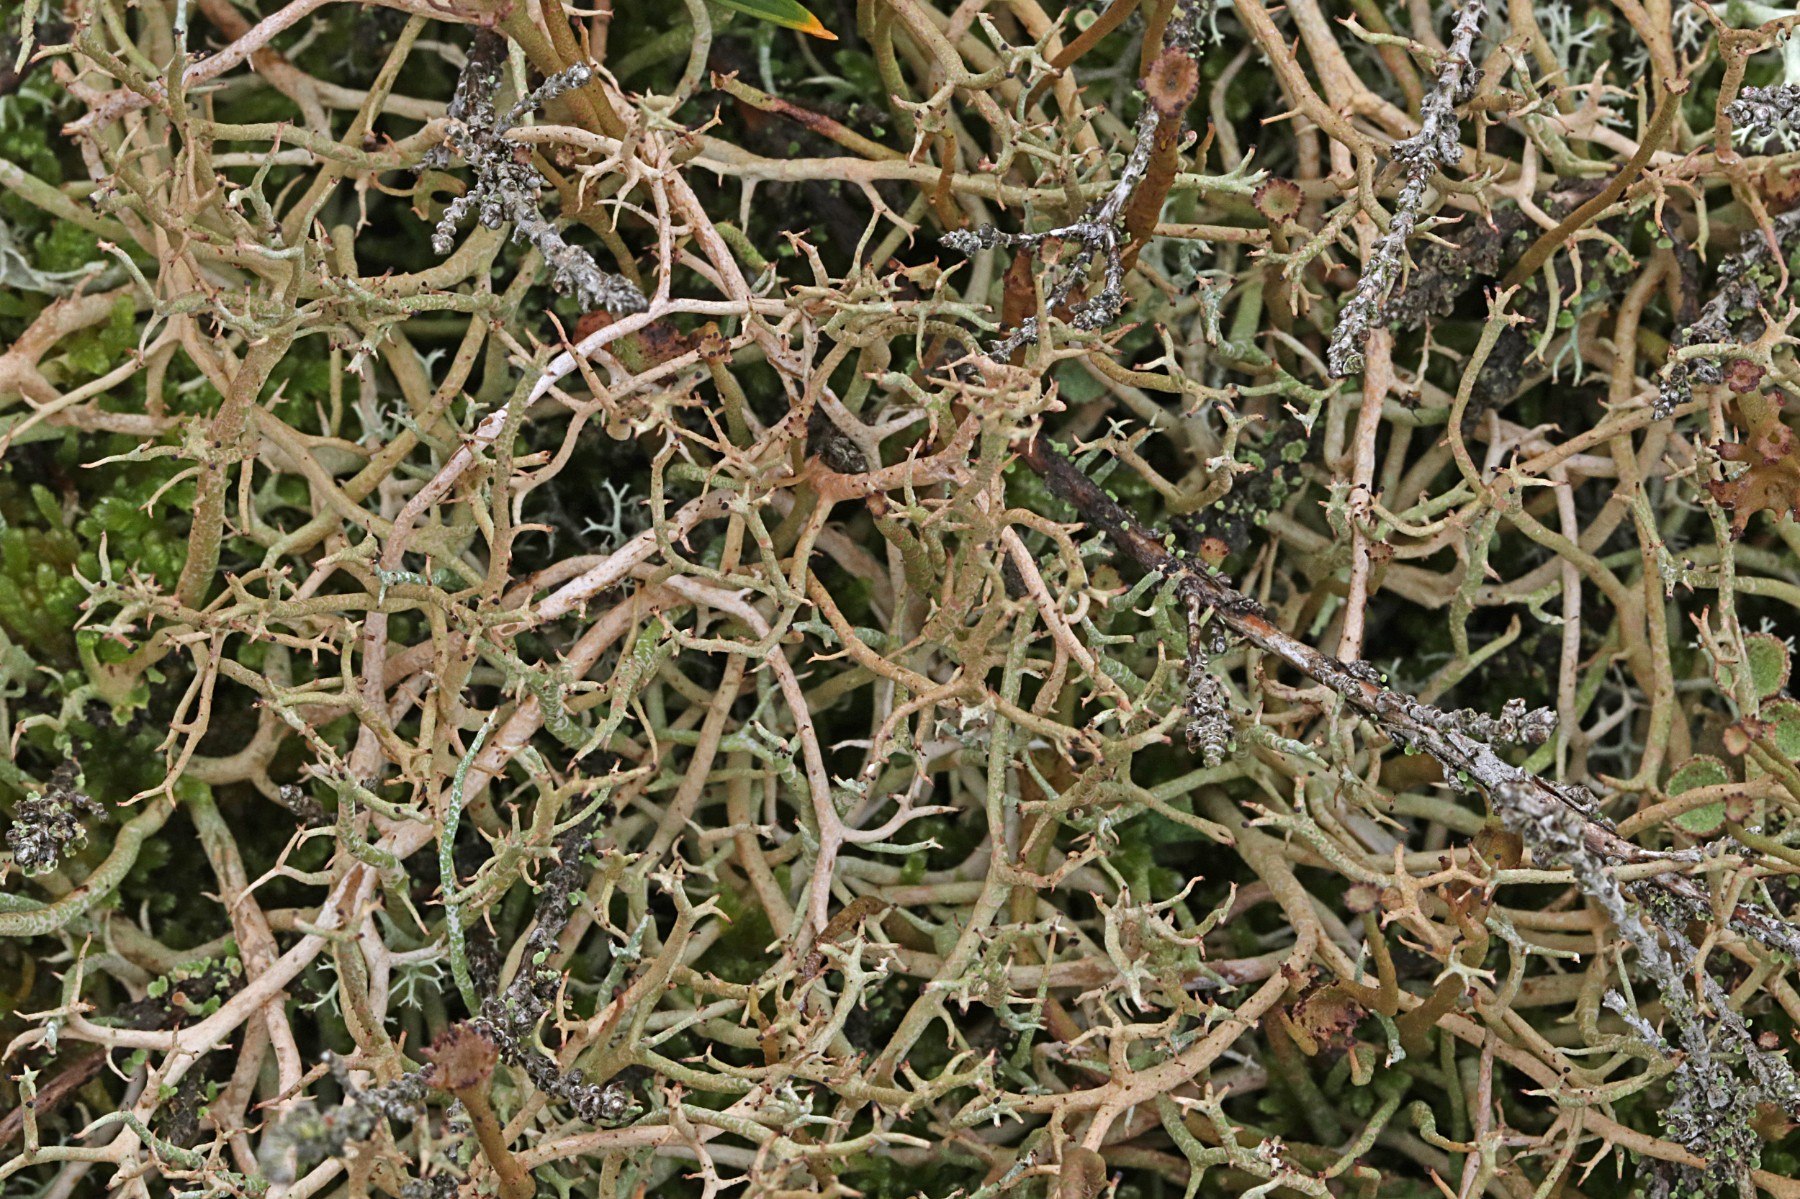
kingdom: Fungi
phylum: Ascomycota
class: Lecanoromycetes
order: Lecanorales
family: Cladoniaceae
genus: Cladonia
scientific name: Cladonia furcata
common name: kløftet bægerlav
